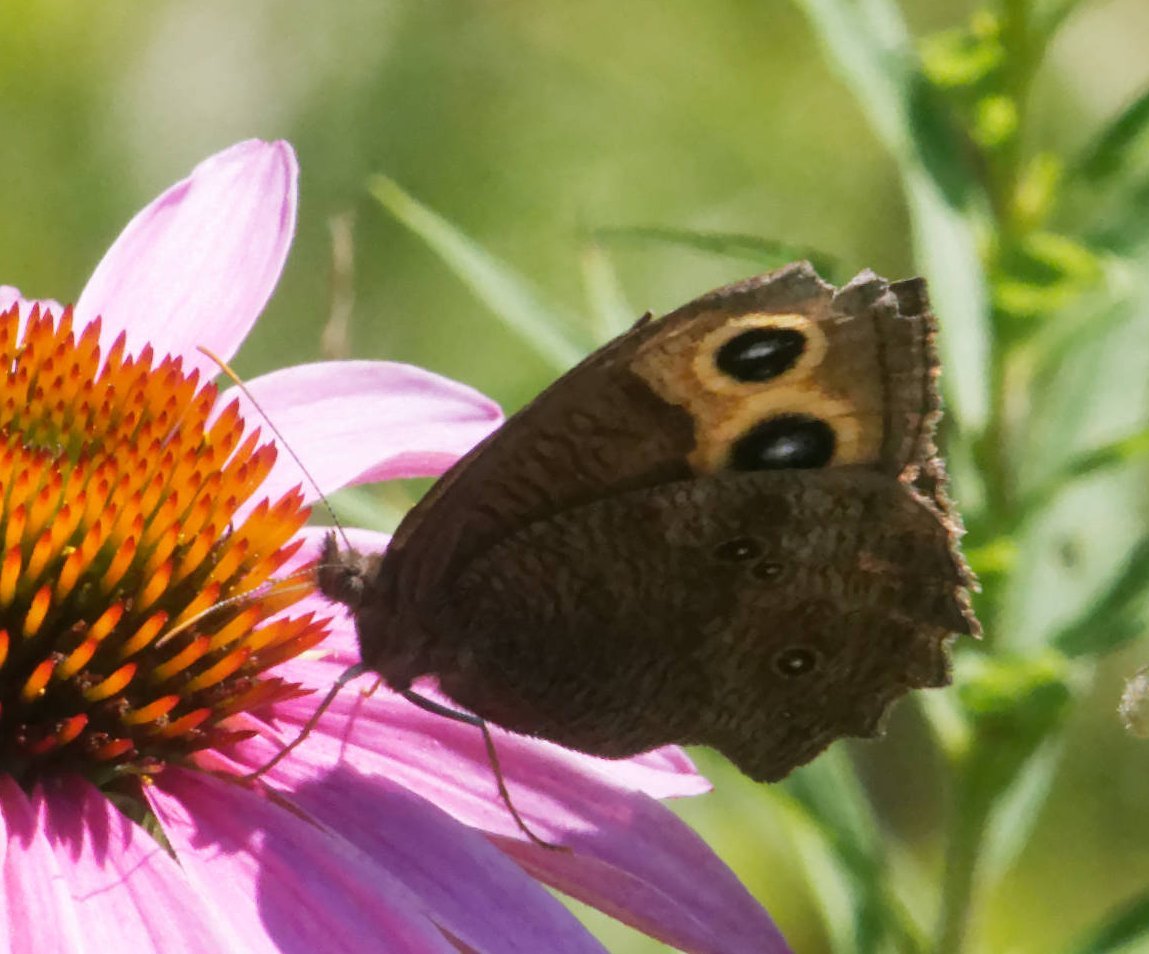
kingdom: Animalia
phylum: Arthropoda
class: Insecta
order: Lepidoptera
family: Nymphalidae
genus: Cercyonis
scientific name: Cercyonis pegala
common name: Common Wood-Nymph
